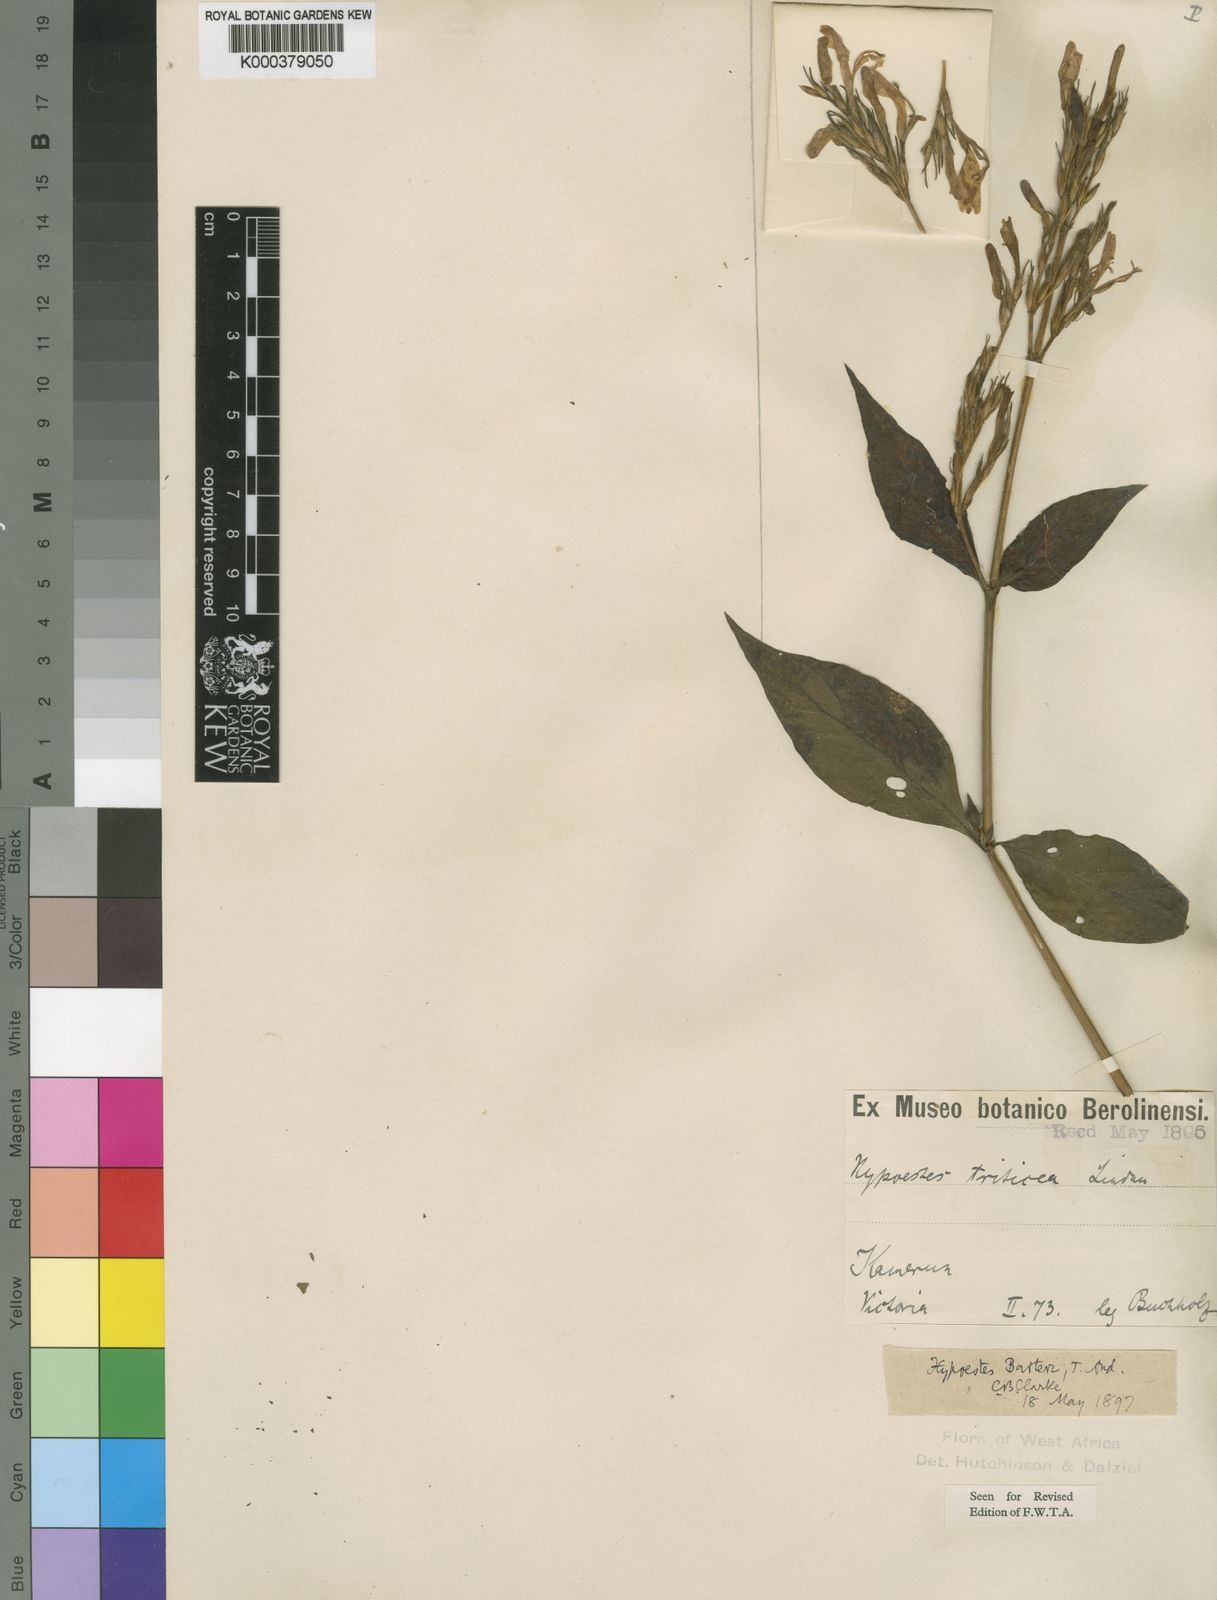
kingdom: Plantae
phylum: Tracheophyta
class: Magnoliopsida
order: Lamiales
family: Acanthaceae
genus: Hypoestes
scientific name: Hypoestes rosea
